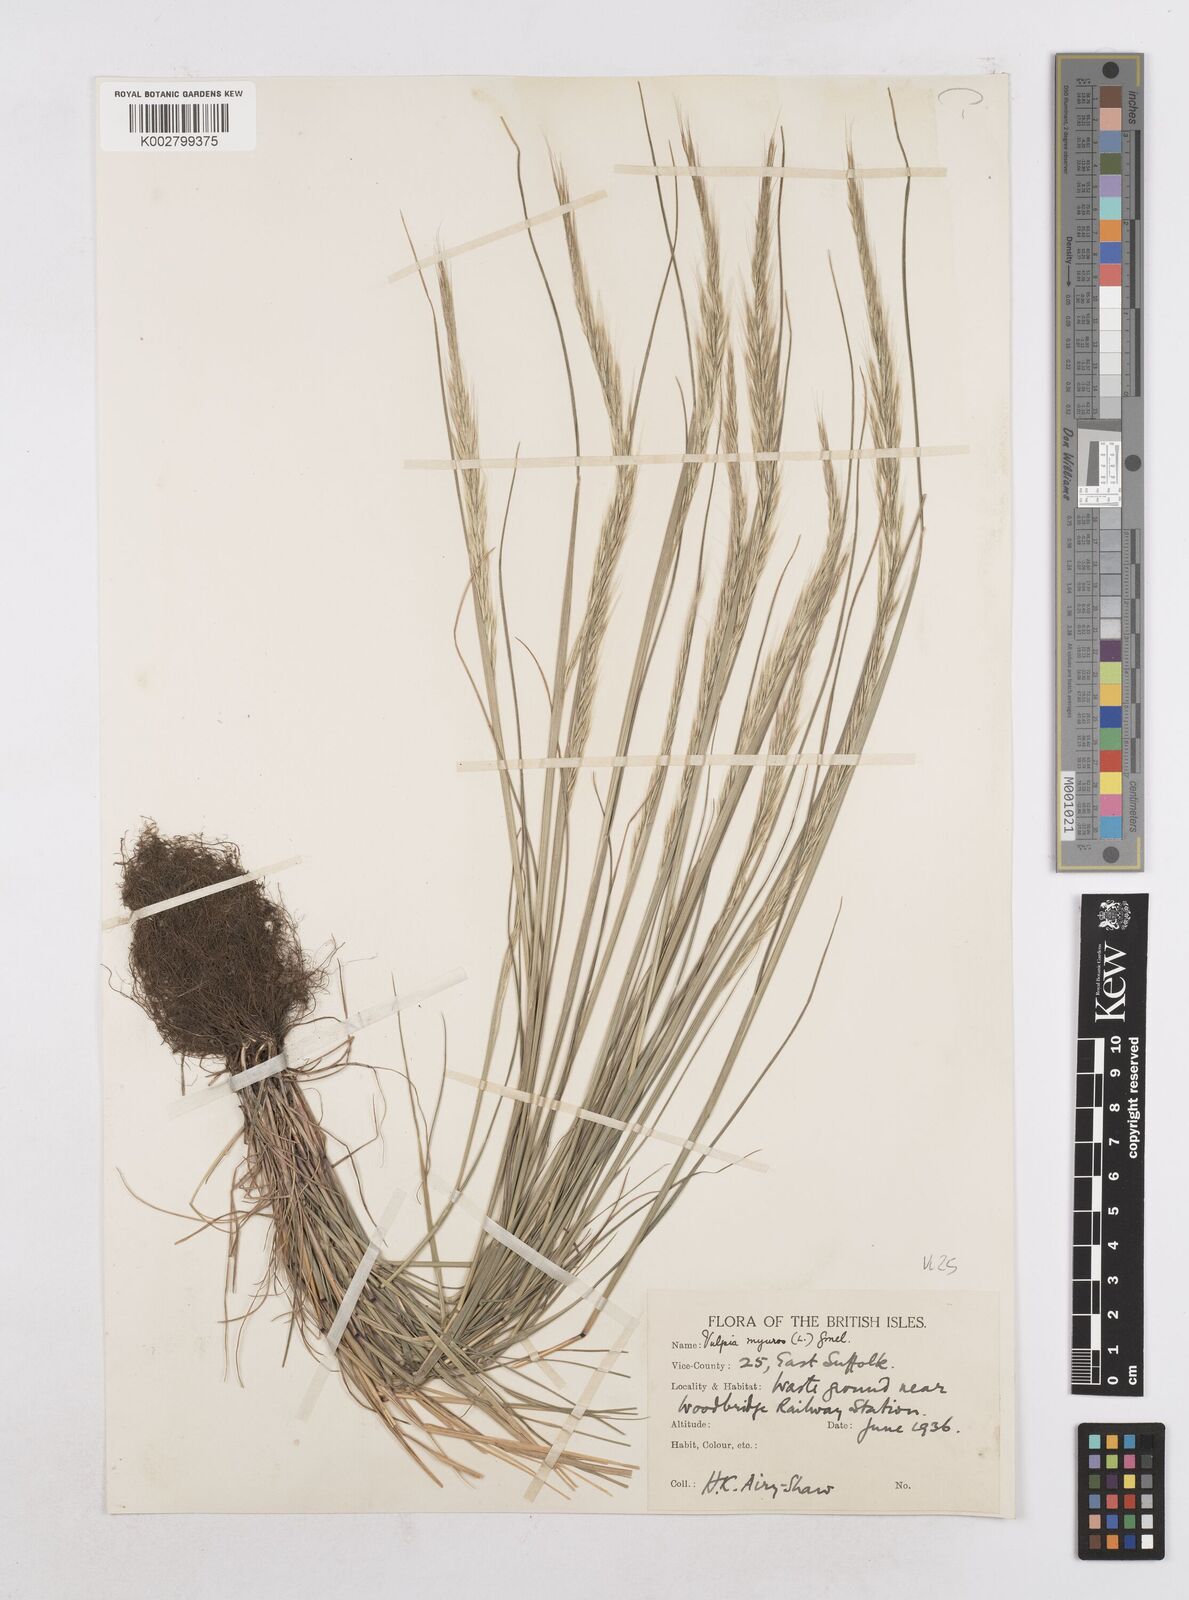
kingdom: Plantae
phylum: Tracheophyta
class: Liliopsida
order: Poales
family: Poaceae
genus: Festuca
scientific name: Festuca myuros
